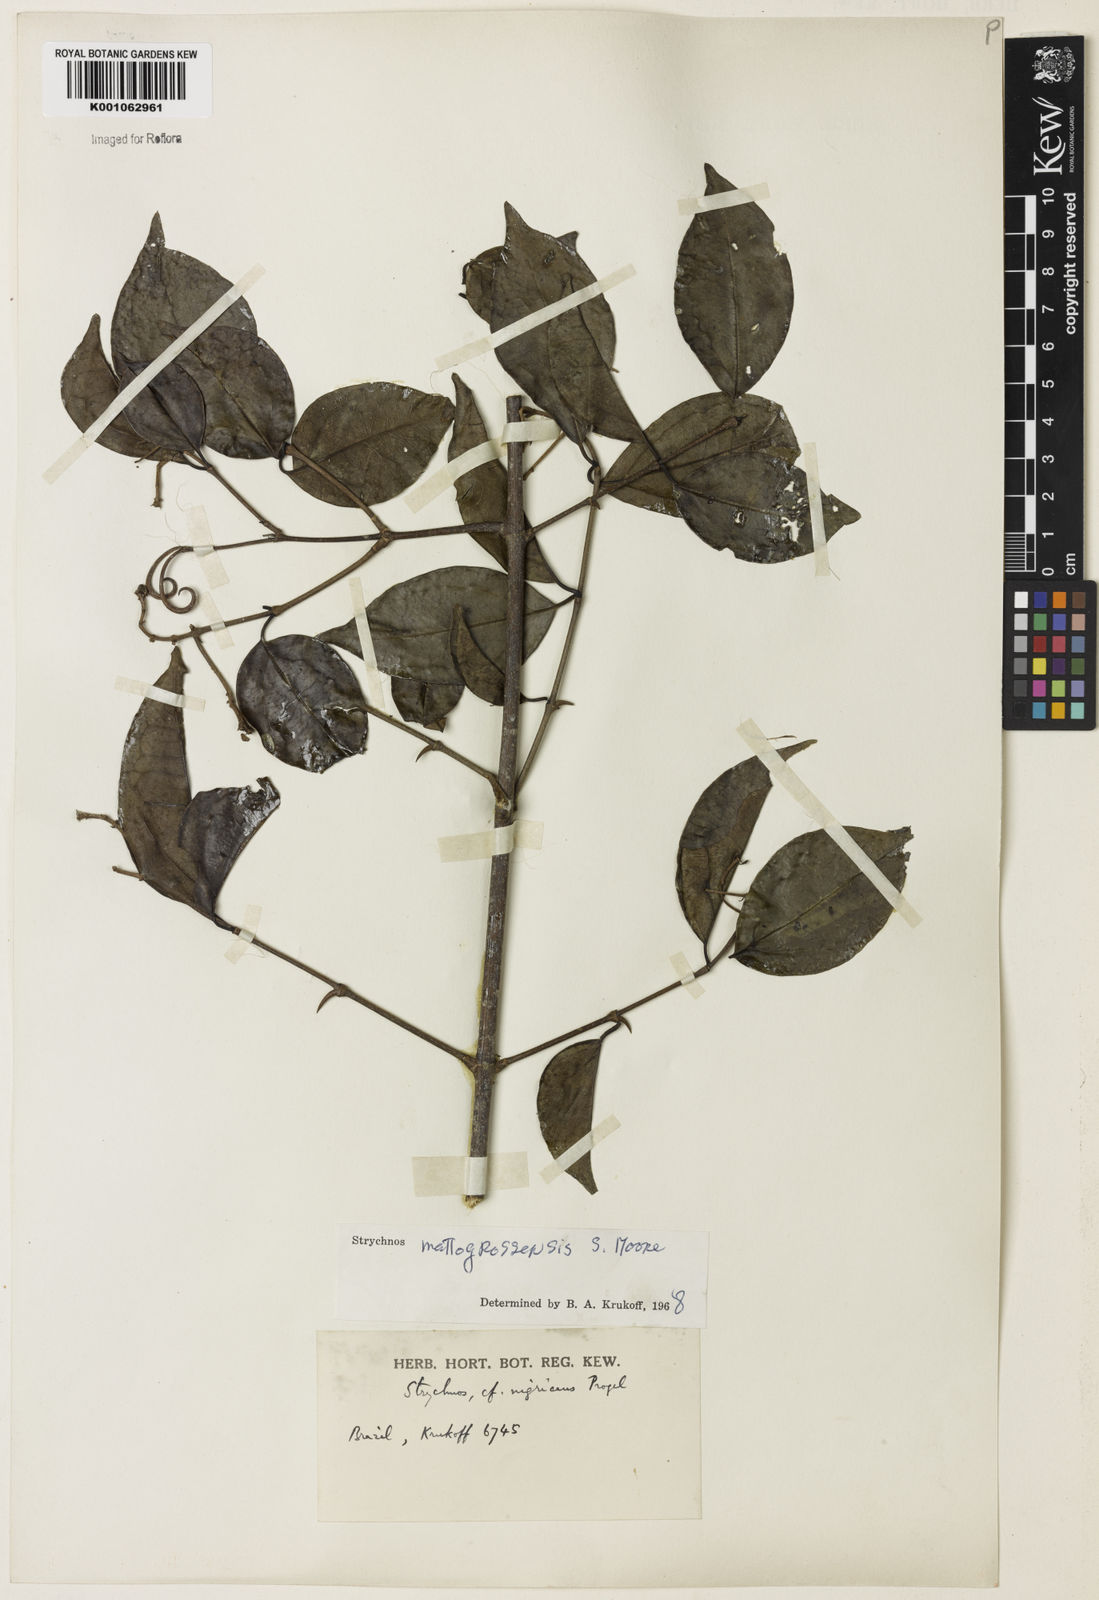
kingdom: Plantae
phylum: Tracheophyta
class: Magnoliopsida
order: Gentianales
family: Loganiaceae
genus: Strychnos
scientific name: Strychnos mattogrossensis
